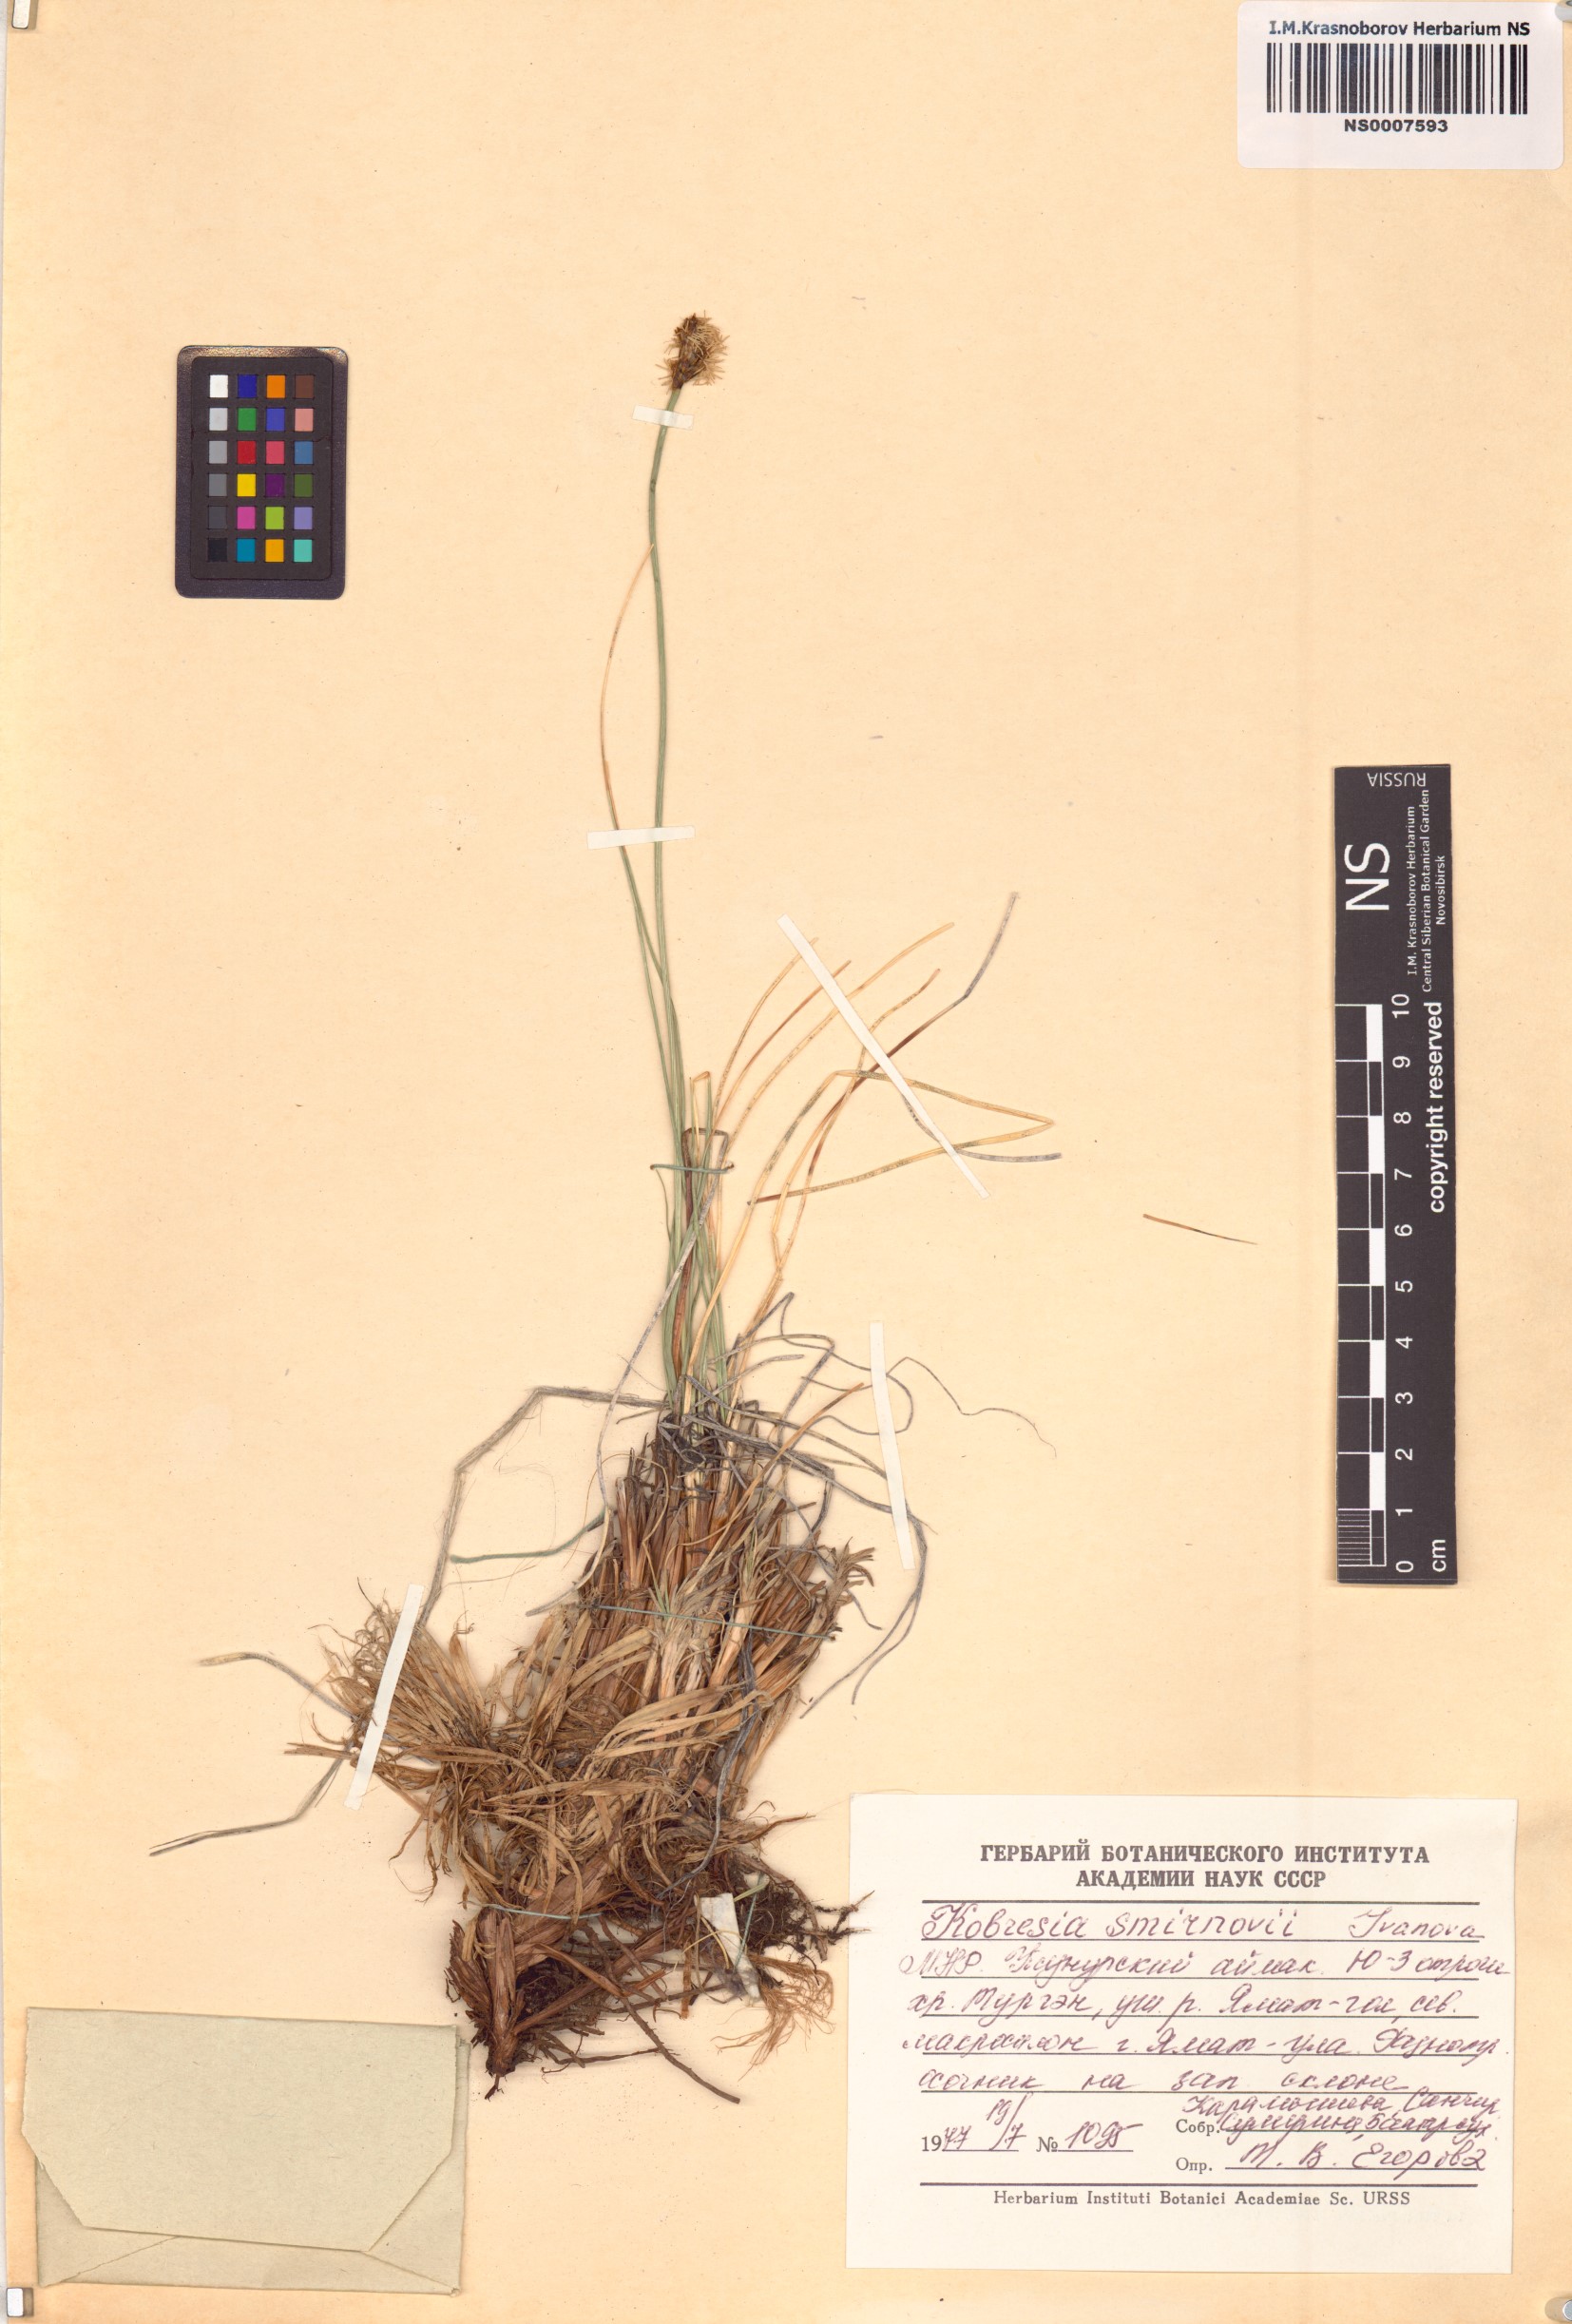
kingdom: Plantae
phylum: Tracheophyta
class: Liliopsida
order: Poales
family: Cyperaceae
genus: Carex
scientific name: Carex borealipolaris
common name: Siberian bog sedge
